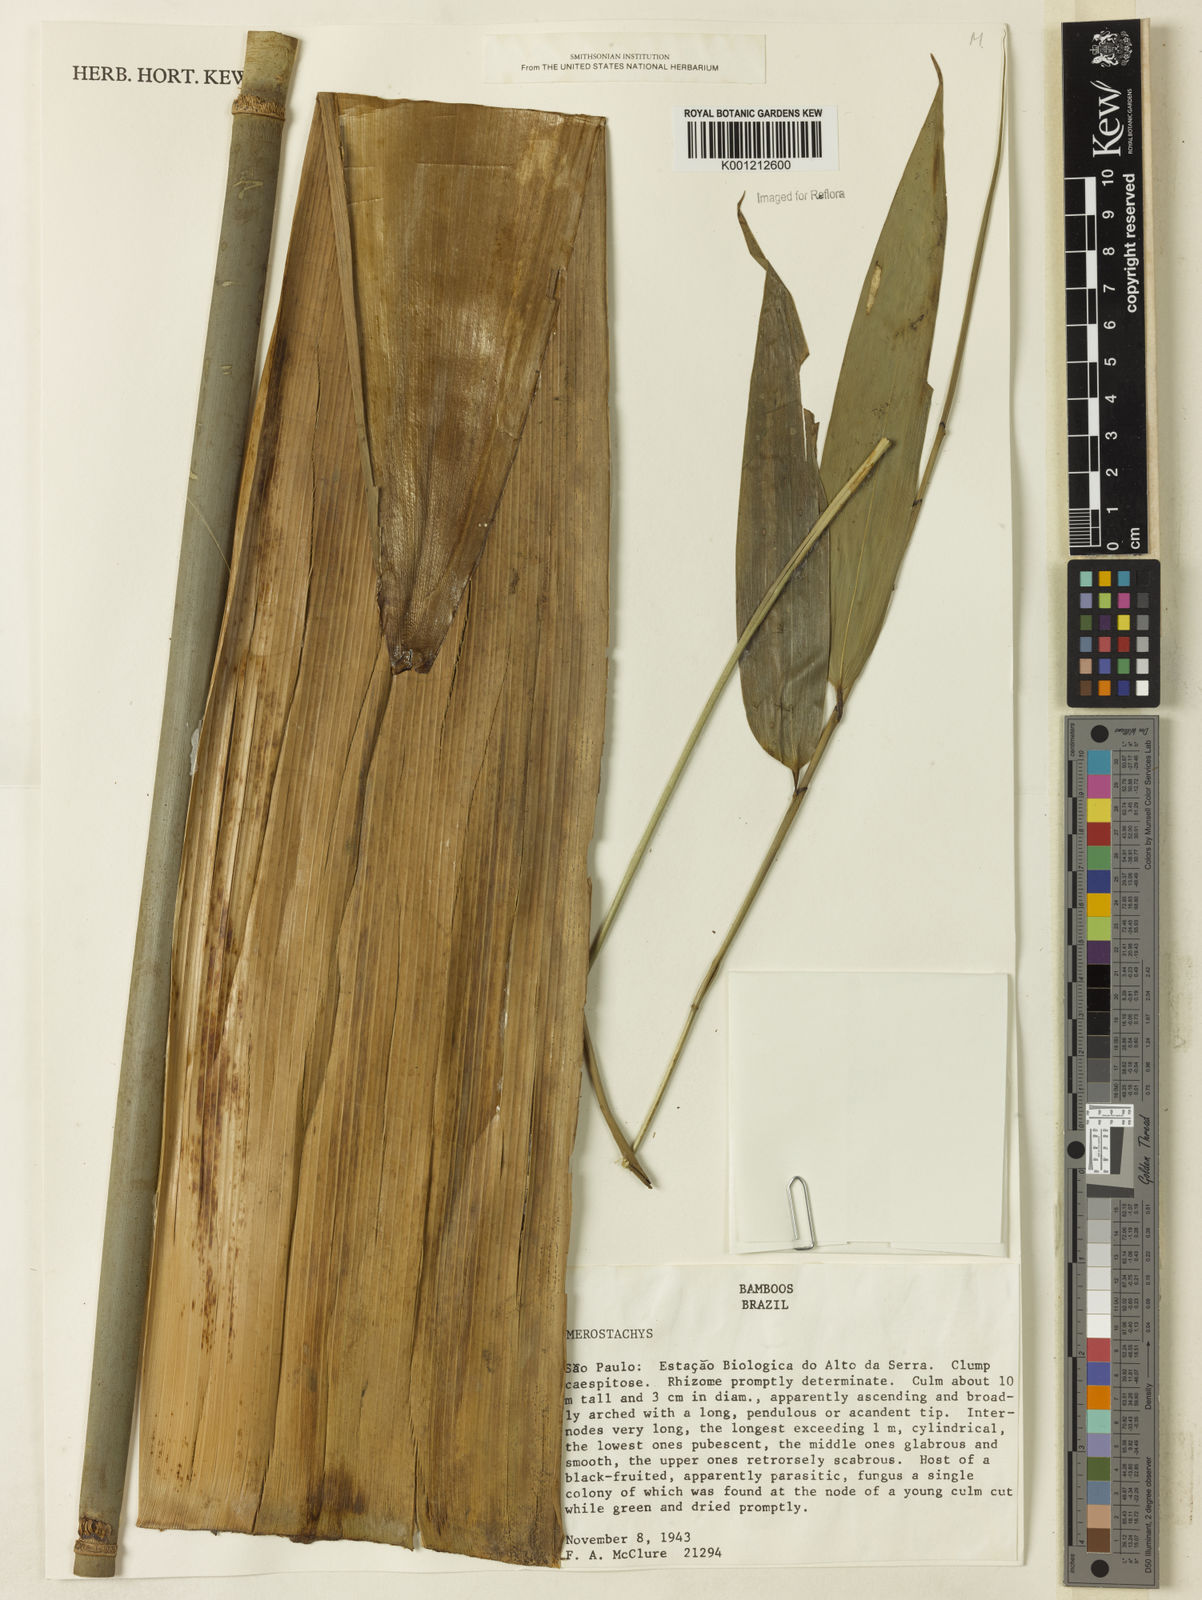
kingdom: Plantae
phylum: Tracheophyta
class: Liliopsida
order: Poales
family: Poaceae
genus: Merostachys
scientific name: Merostachys
